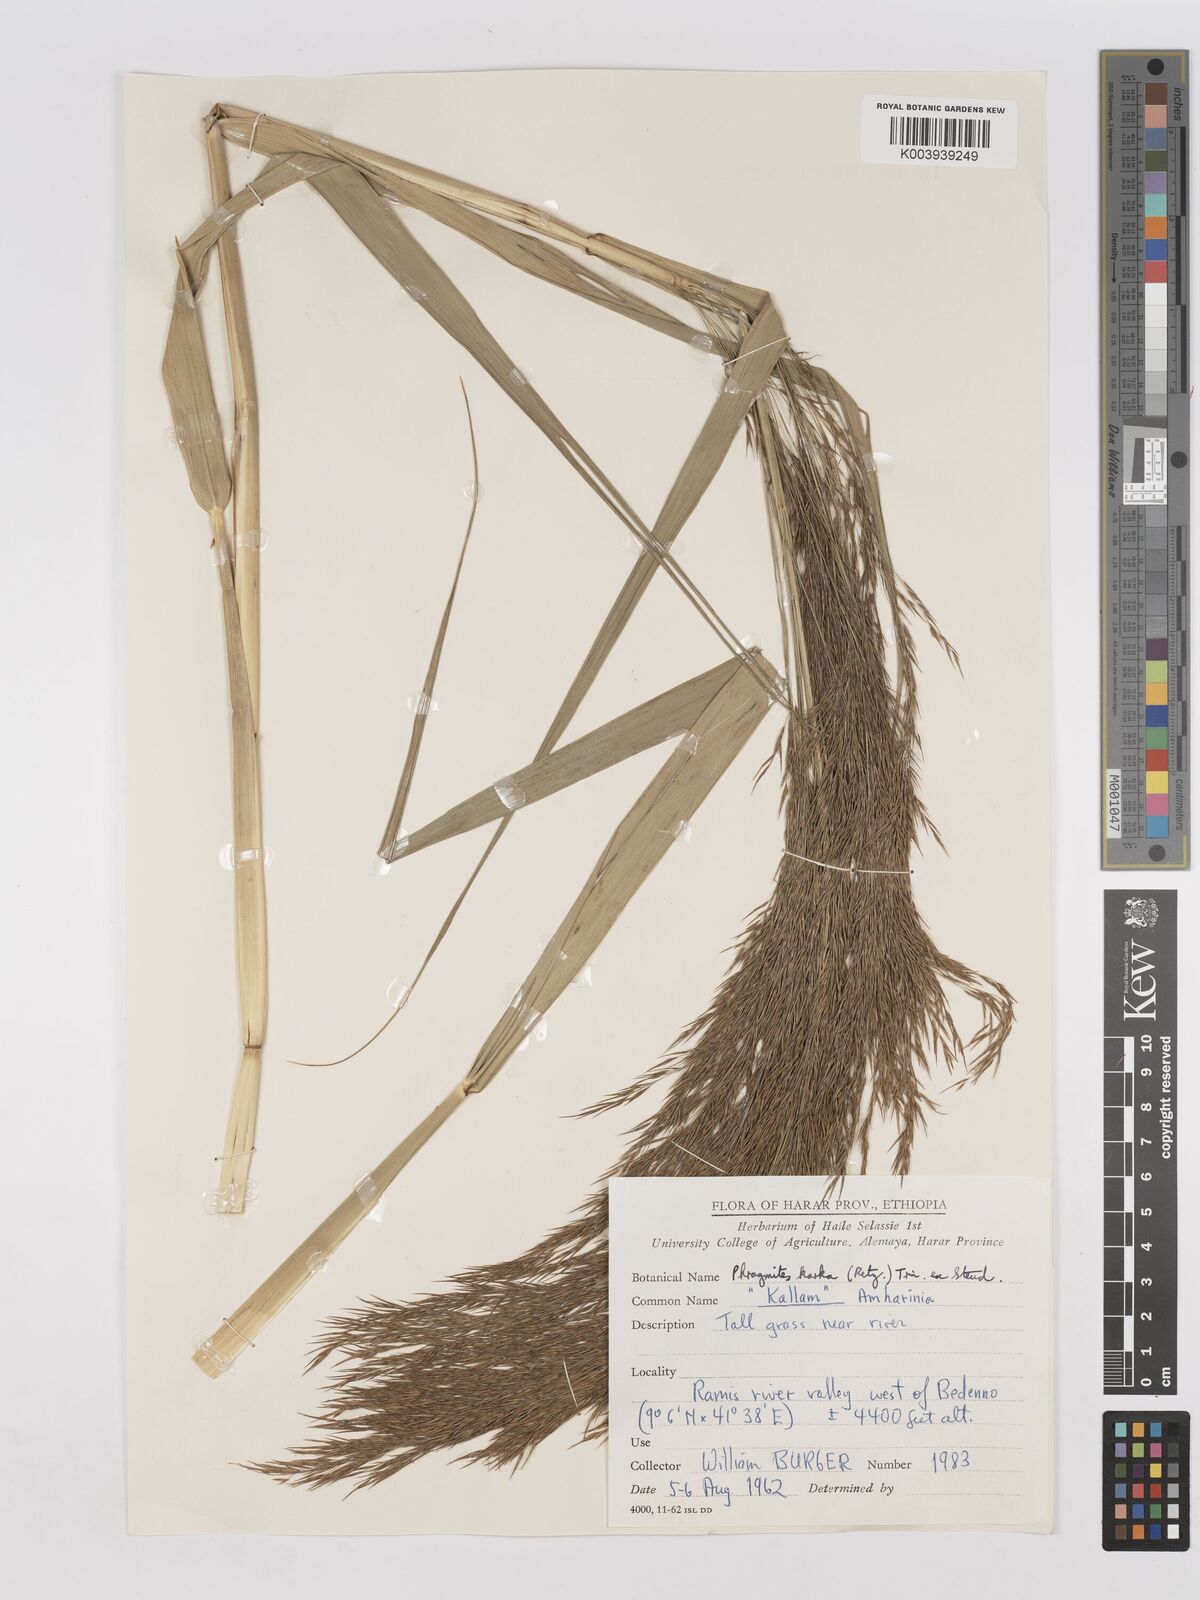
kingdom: Plantae
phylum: Tracheophyta
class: Liliopsida
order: Poales
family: Poaceae
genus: Phragmites
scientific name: Phragmites karka
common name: Tropical reed
